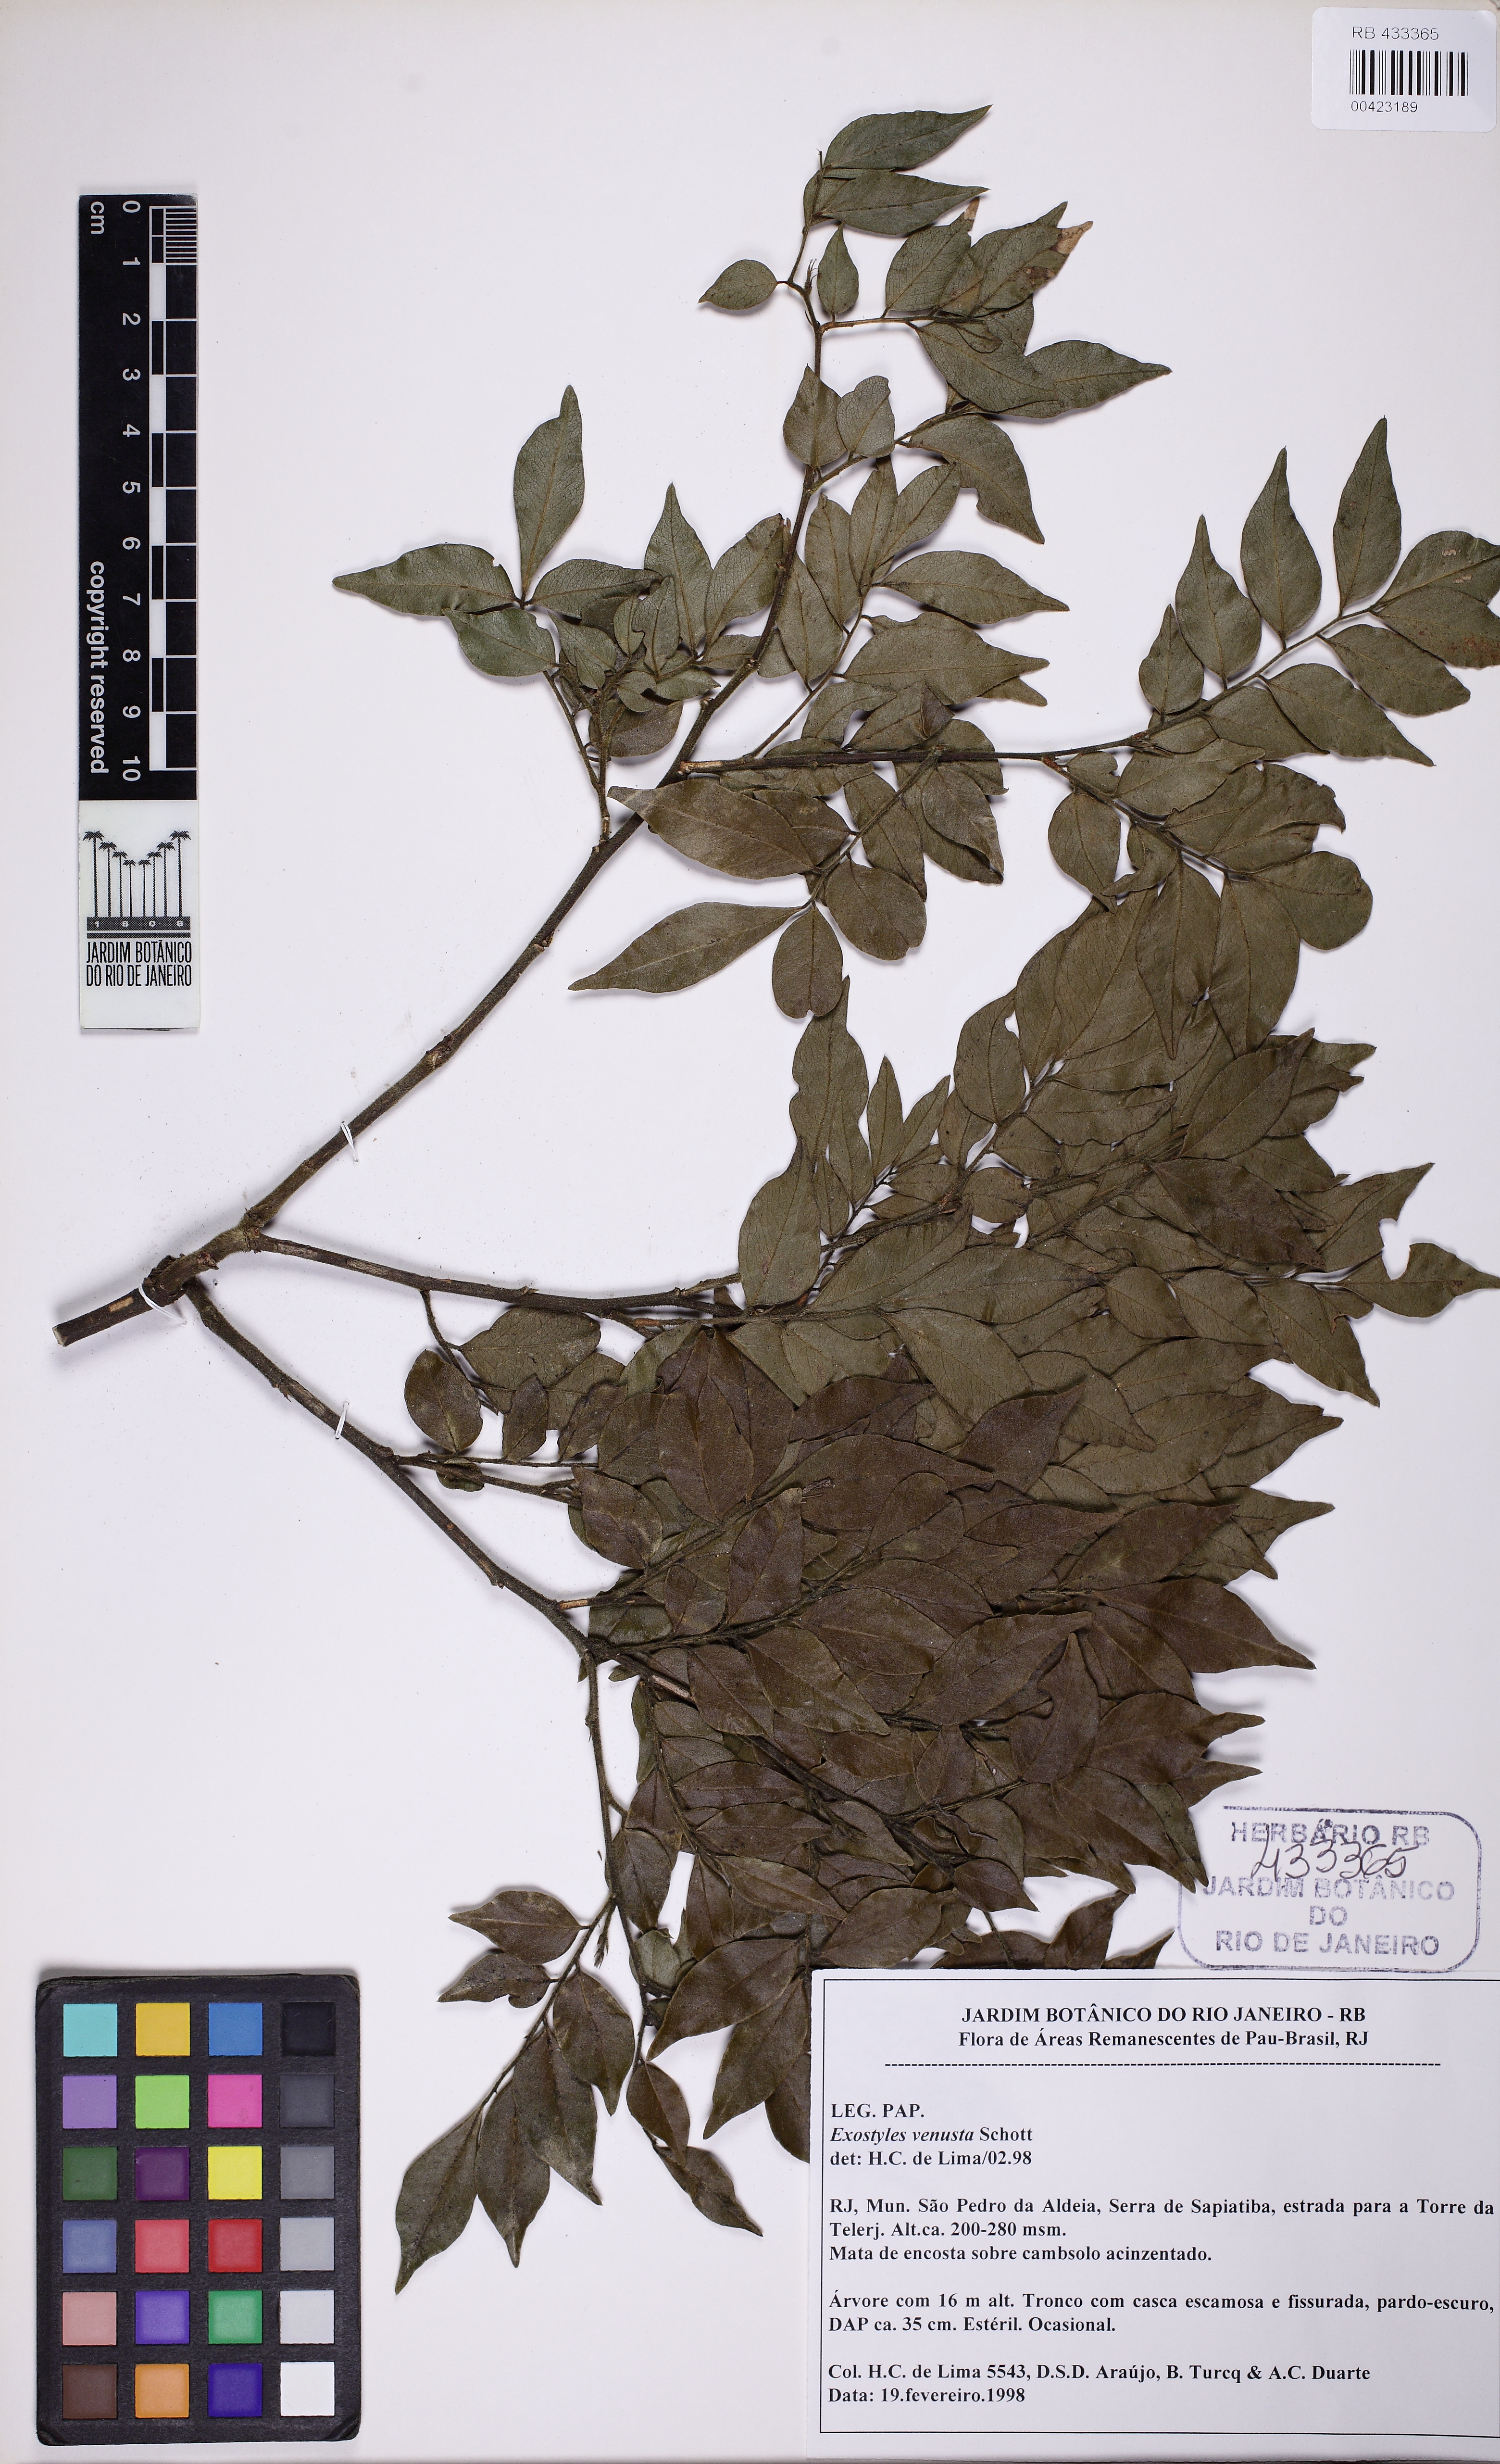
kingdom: Plantae
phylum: Tracheophyta
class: Magnoliopsida
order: Fabales
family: Fabaceae
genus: Exostyles
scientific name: Exostyles venusta
